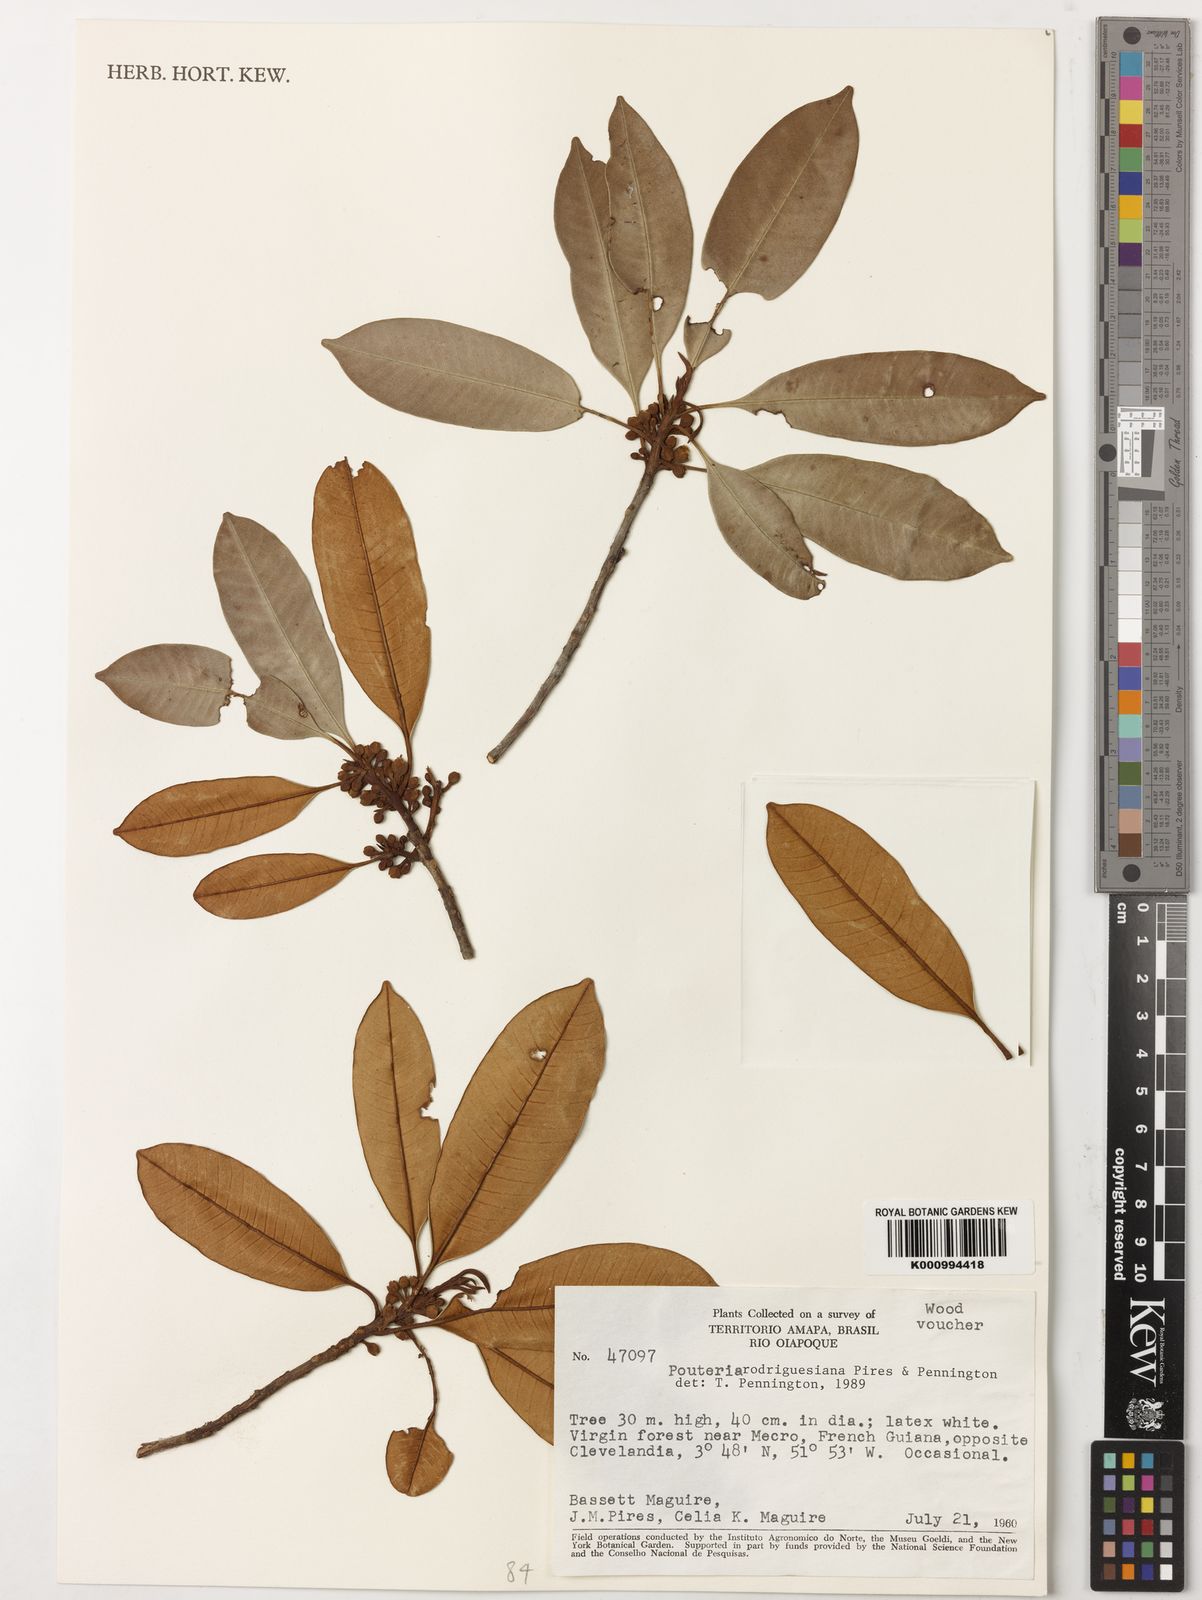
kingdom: Plantae
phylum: Tracheophyta
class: Magnoliopsida
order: Ericales
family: Sapotaceae
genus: Pouteria
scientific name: Pouteria rodriguesiana
